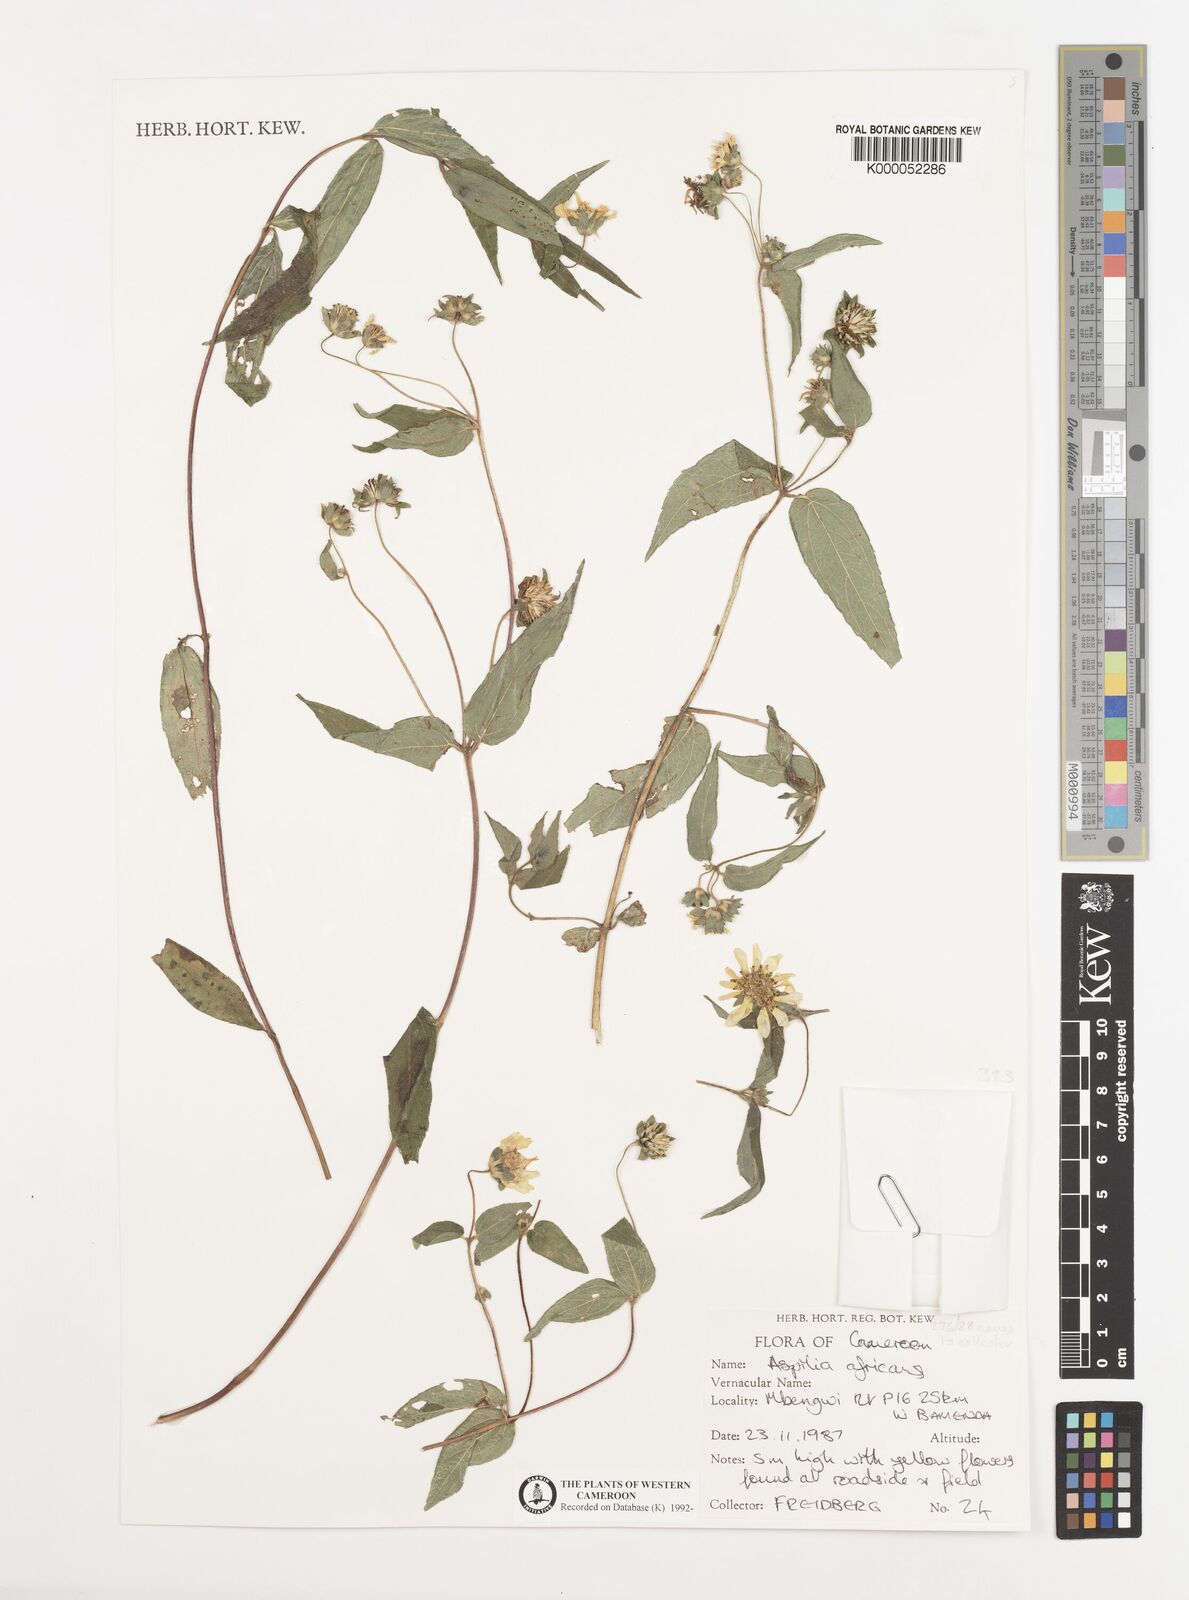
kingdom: Plantae
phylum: Tracheophyta
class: Magnoliopsida
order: Asterales
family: Asteraceae
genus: Aspilia
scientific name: Aspilia africana
